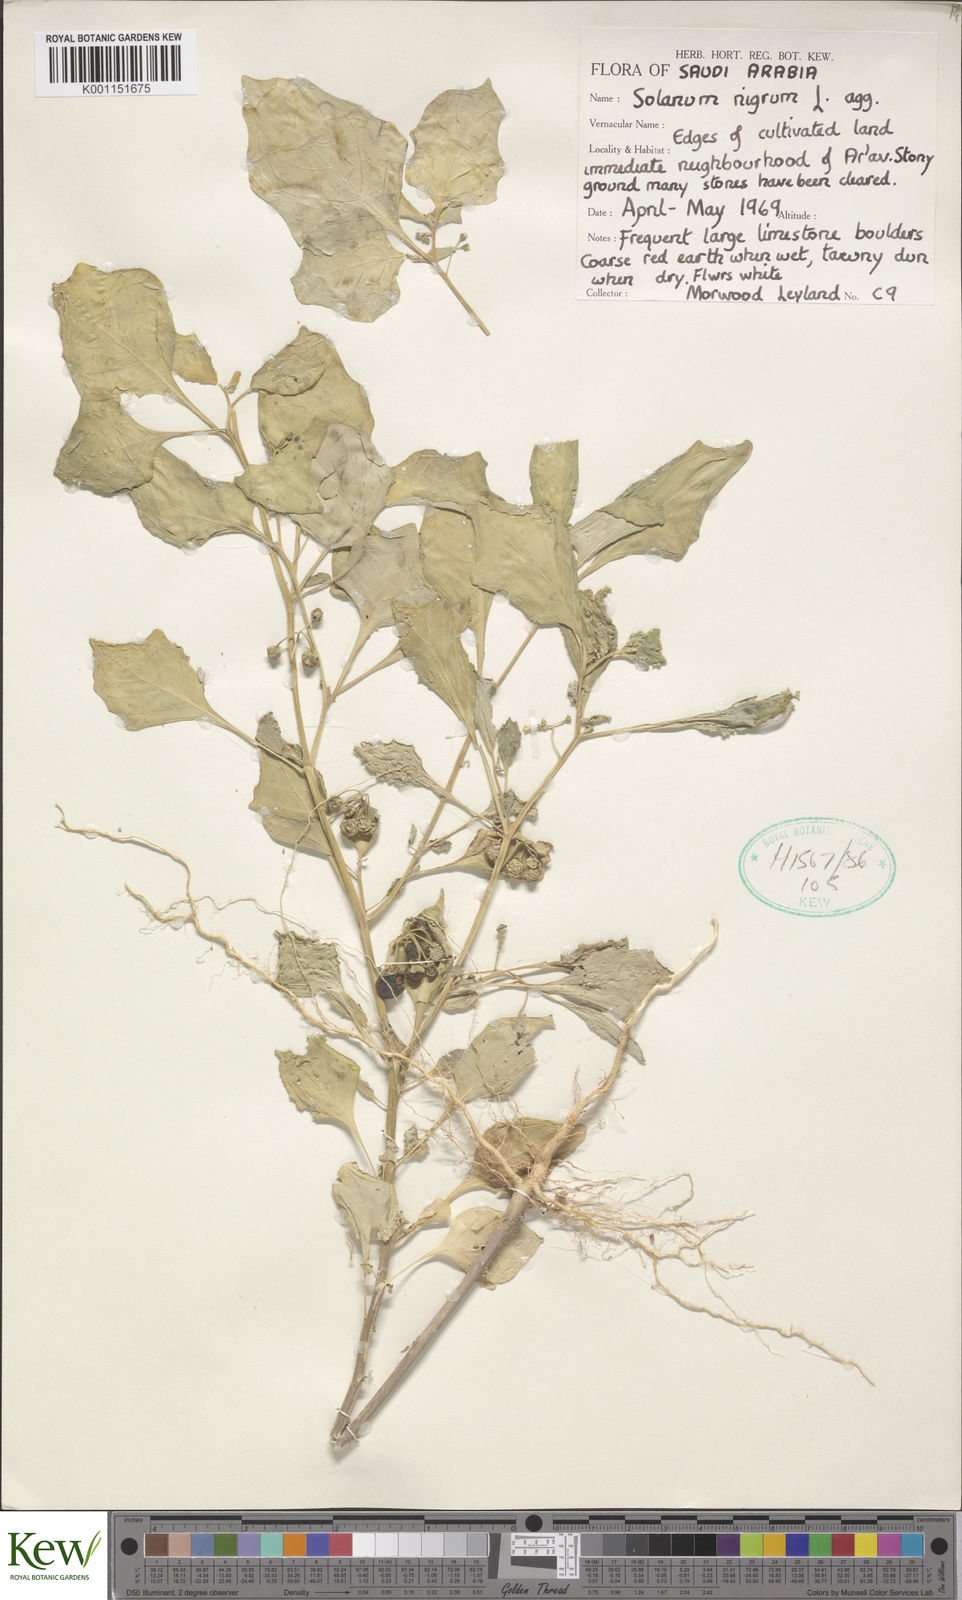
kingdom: Plantae
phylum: Tracheophyta
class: Magnoliopsida
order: Solanales
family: Solanaceae
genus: Solanum
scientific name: Solanum americanum
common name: American black nightshade
